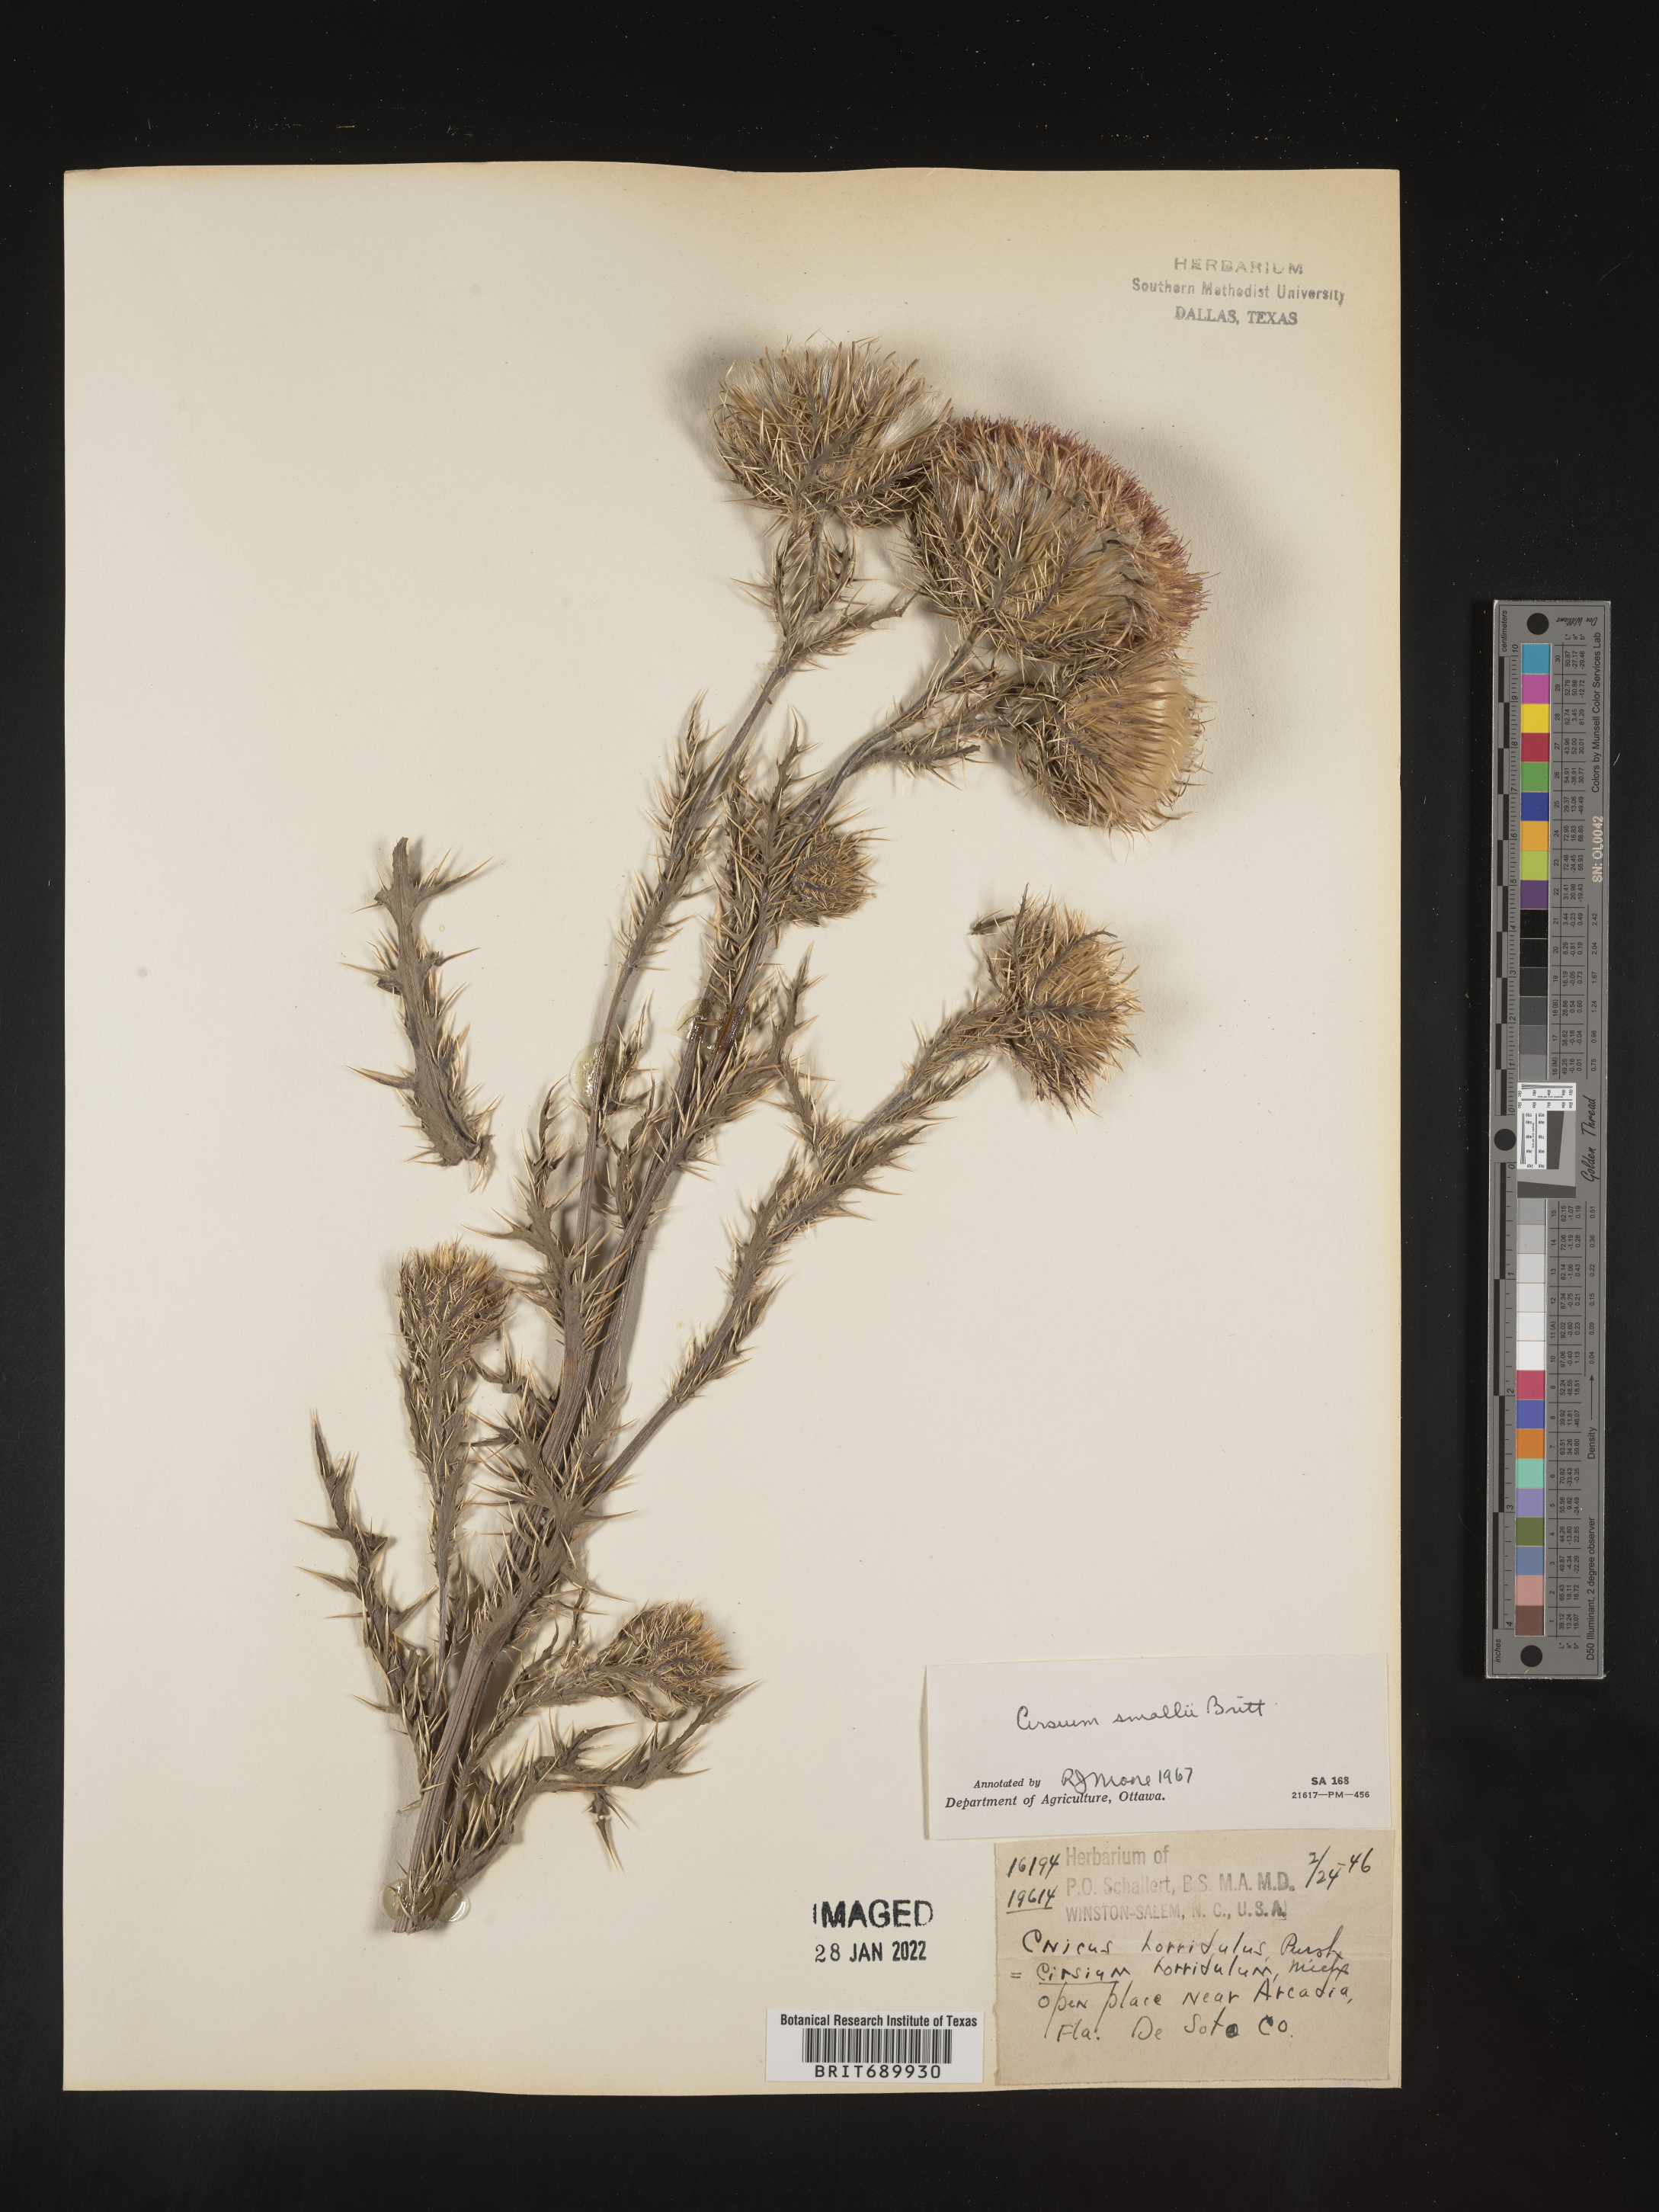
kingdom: Plantae
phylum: Tracheophyta
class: Magnoliopsida
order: Asterales
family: Asteraceae
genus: Cirsium
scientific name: Cirsium horridulum
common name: Bristly thistle
